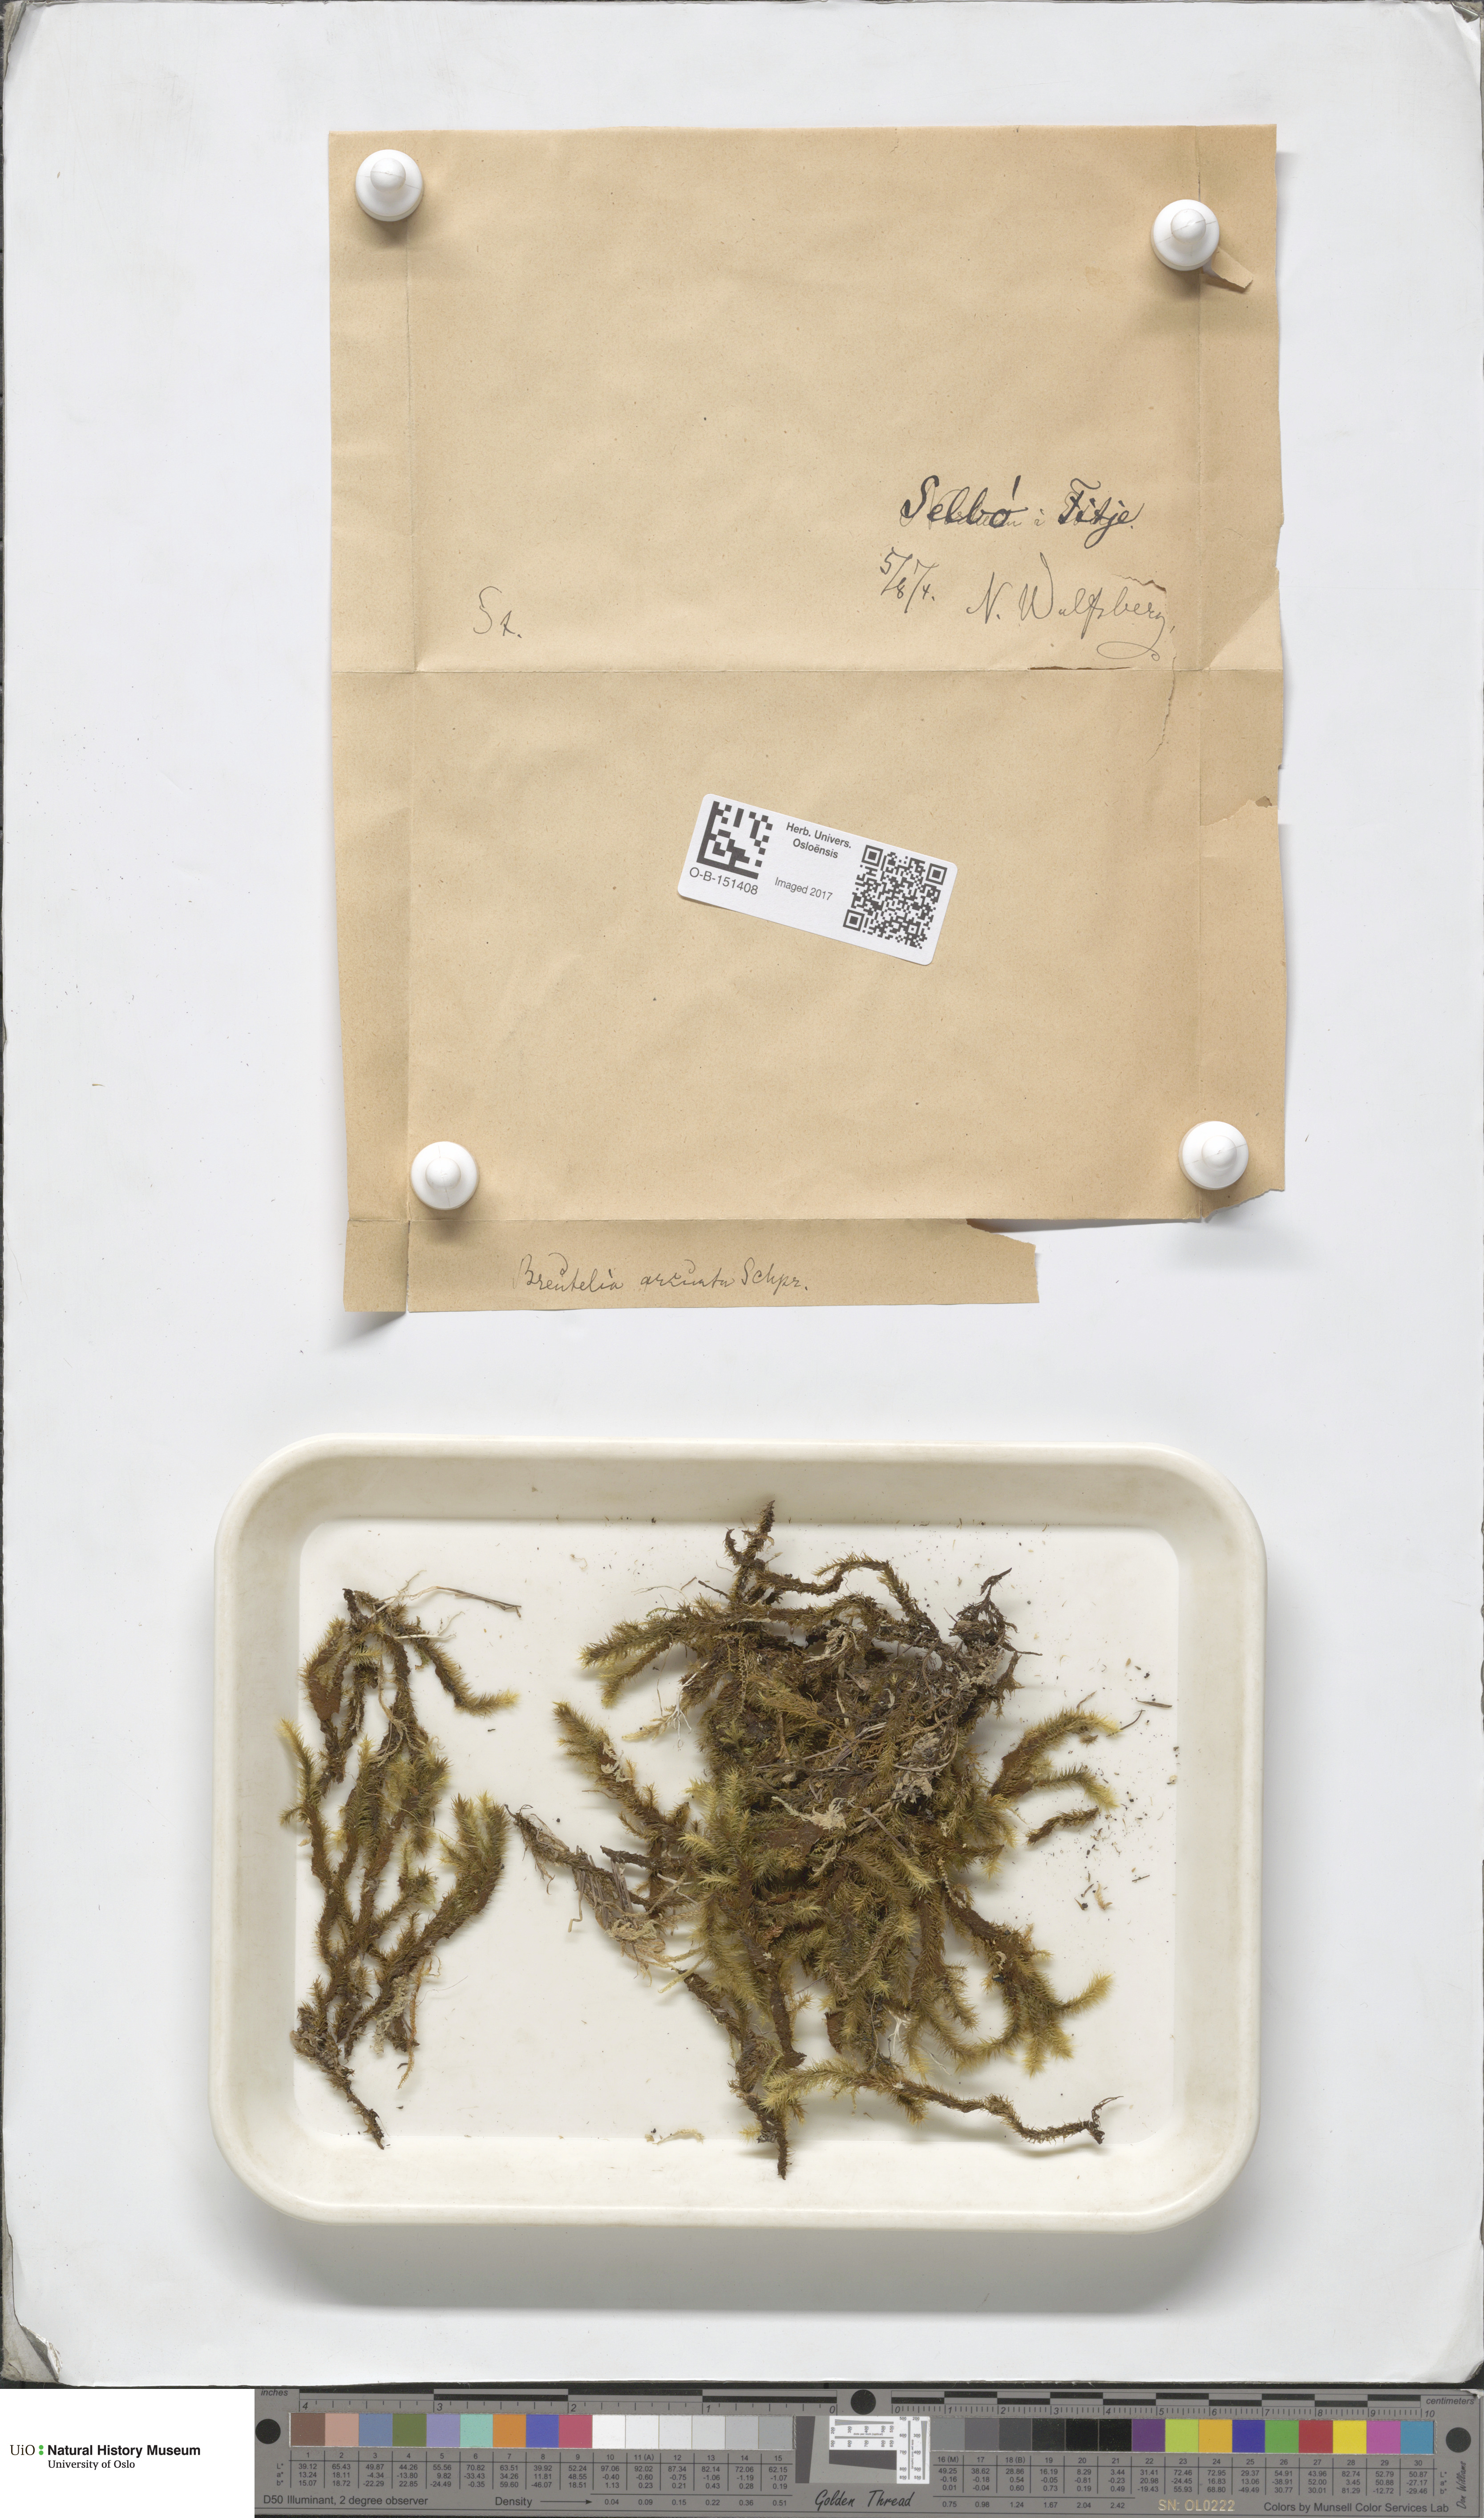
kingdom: Plantae
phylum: Bryophyta
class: Bryopsida
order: Bartramiales
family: Bartramiaceae
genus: Breutelia
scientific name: Breutelia chrysocoma
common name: Bottle-brush moss
